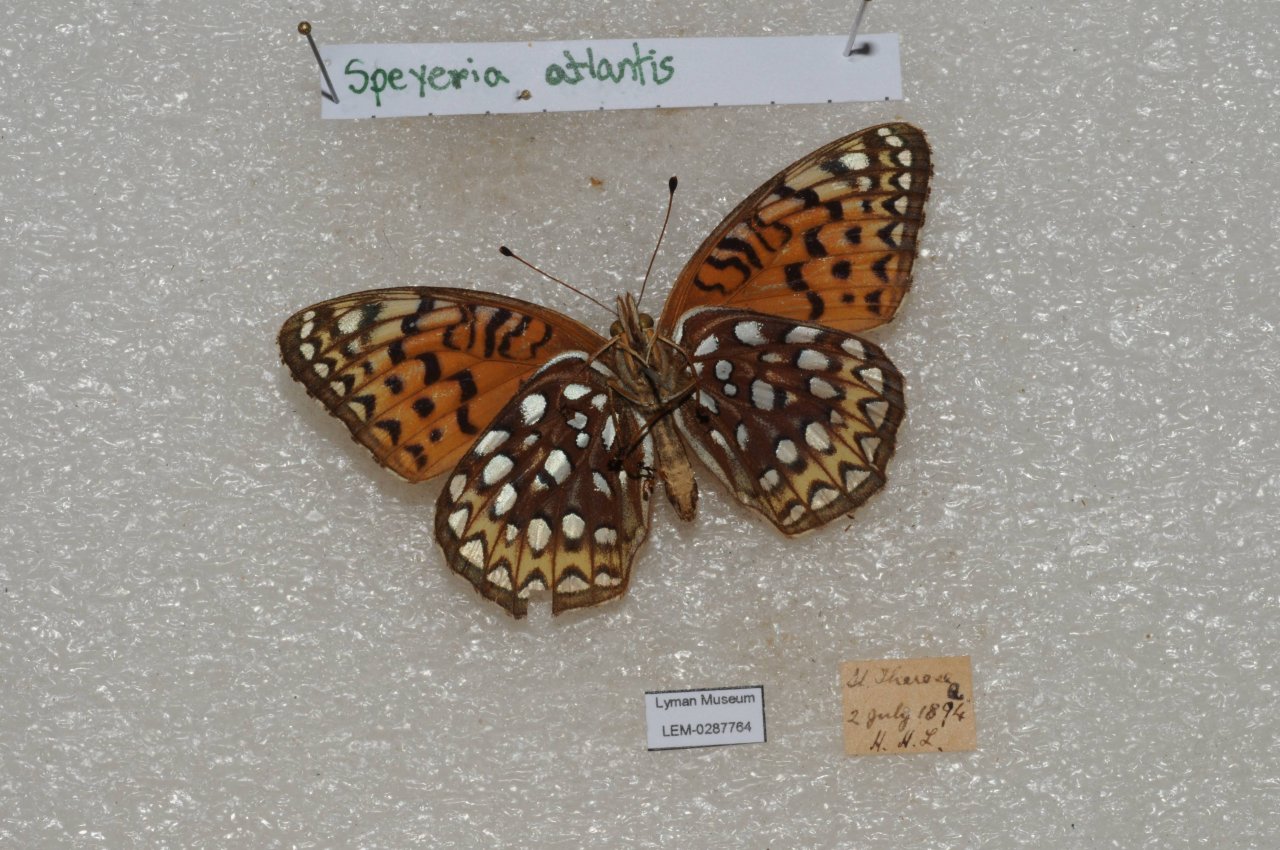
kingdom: Animalia
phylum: Arthropoda
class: Insecta
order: Lepidoptera
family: Nymphalidae
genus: Speyeria
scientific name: Speyeria atlantis
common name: Atlantis Fritillary
